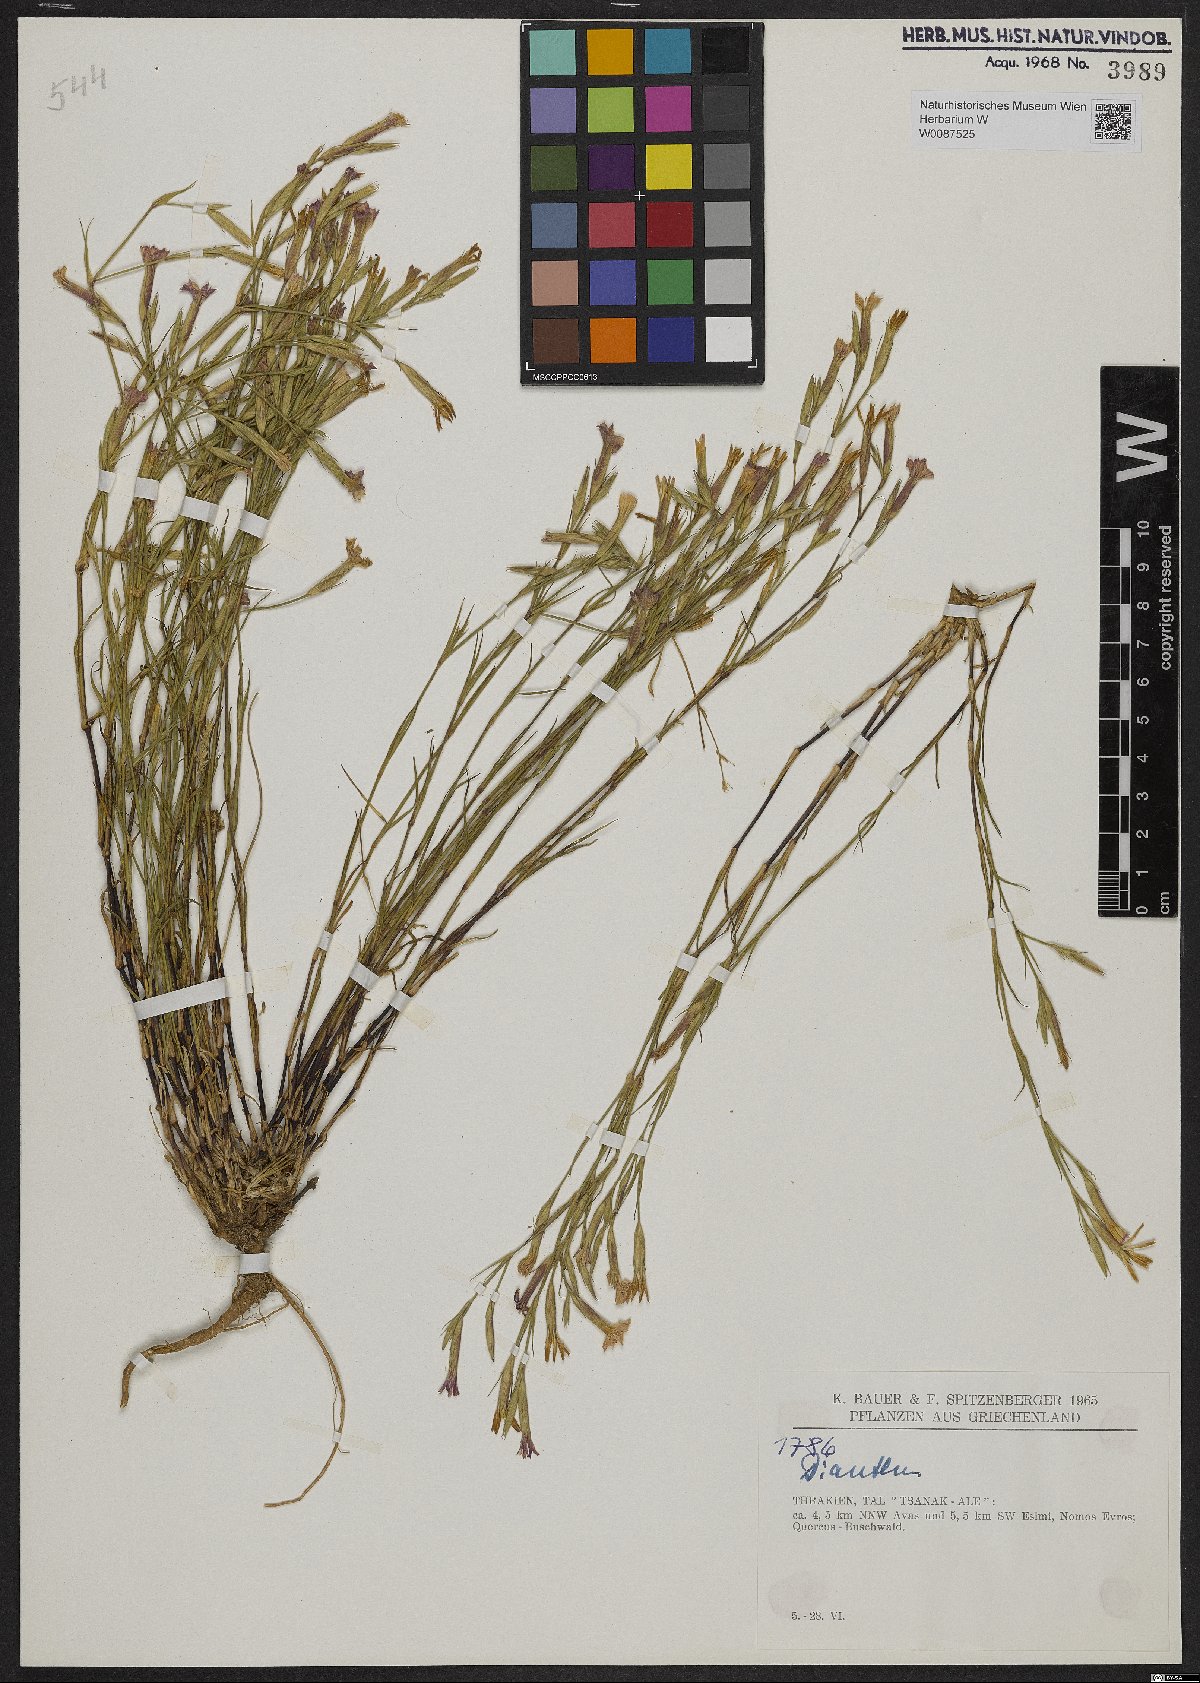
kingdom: Plantae
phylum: Tracheophyta
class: Magnoliopsida
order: Caryophyllales
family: Caryophyllaceae
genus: Dianthus
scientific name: Dianthus
